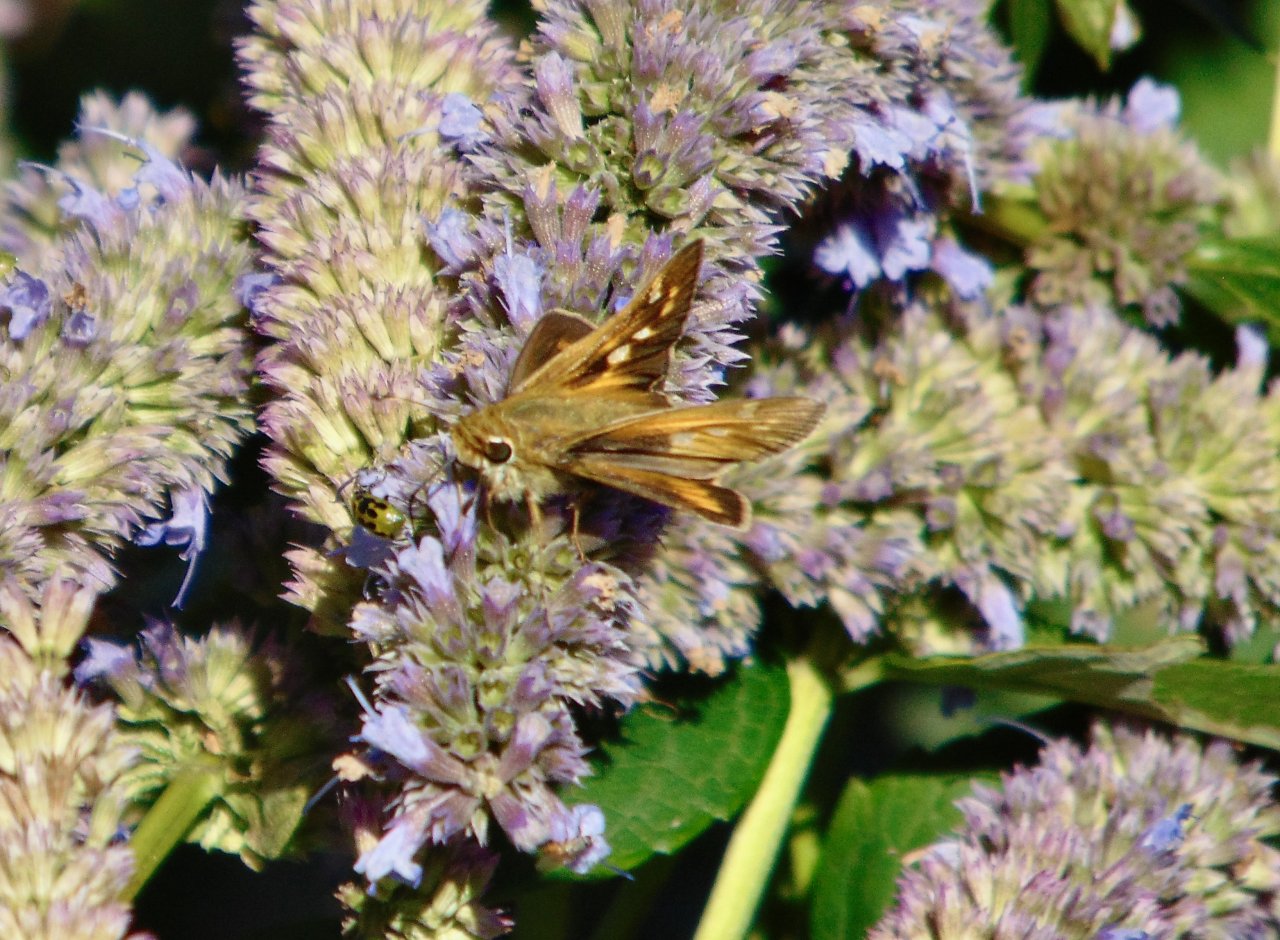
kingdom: Animalia
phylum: Arthropoda
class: Insecta
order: Lepidoptera
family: Hesperiidae
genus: Atalopedes
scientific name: Atalopedes campestris
